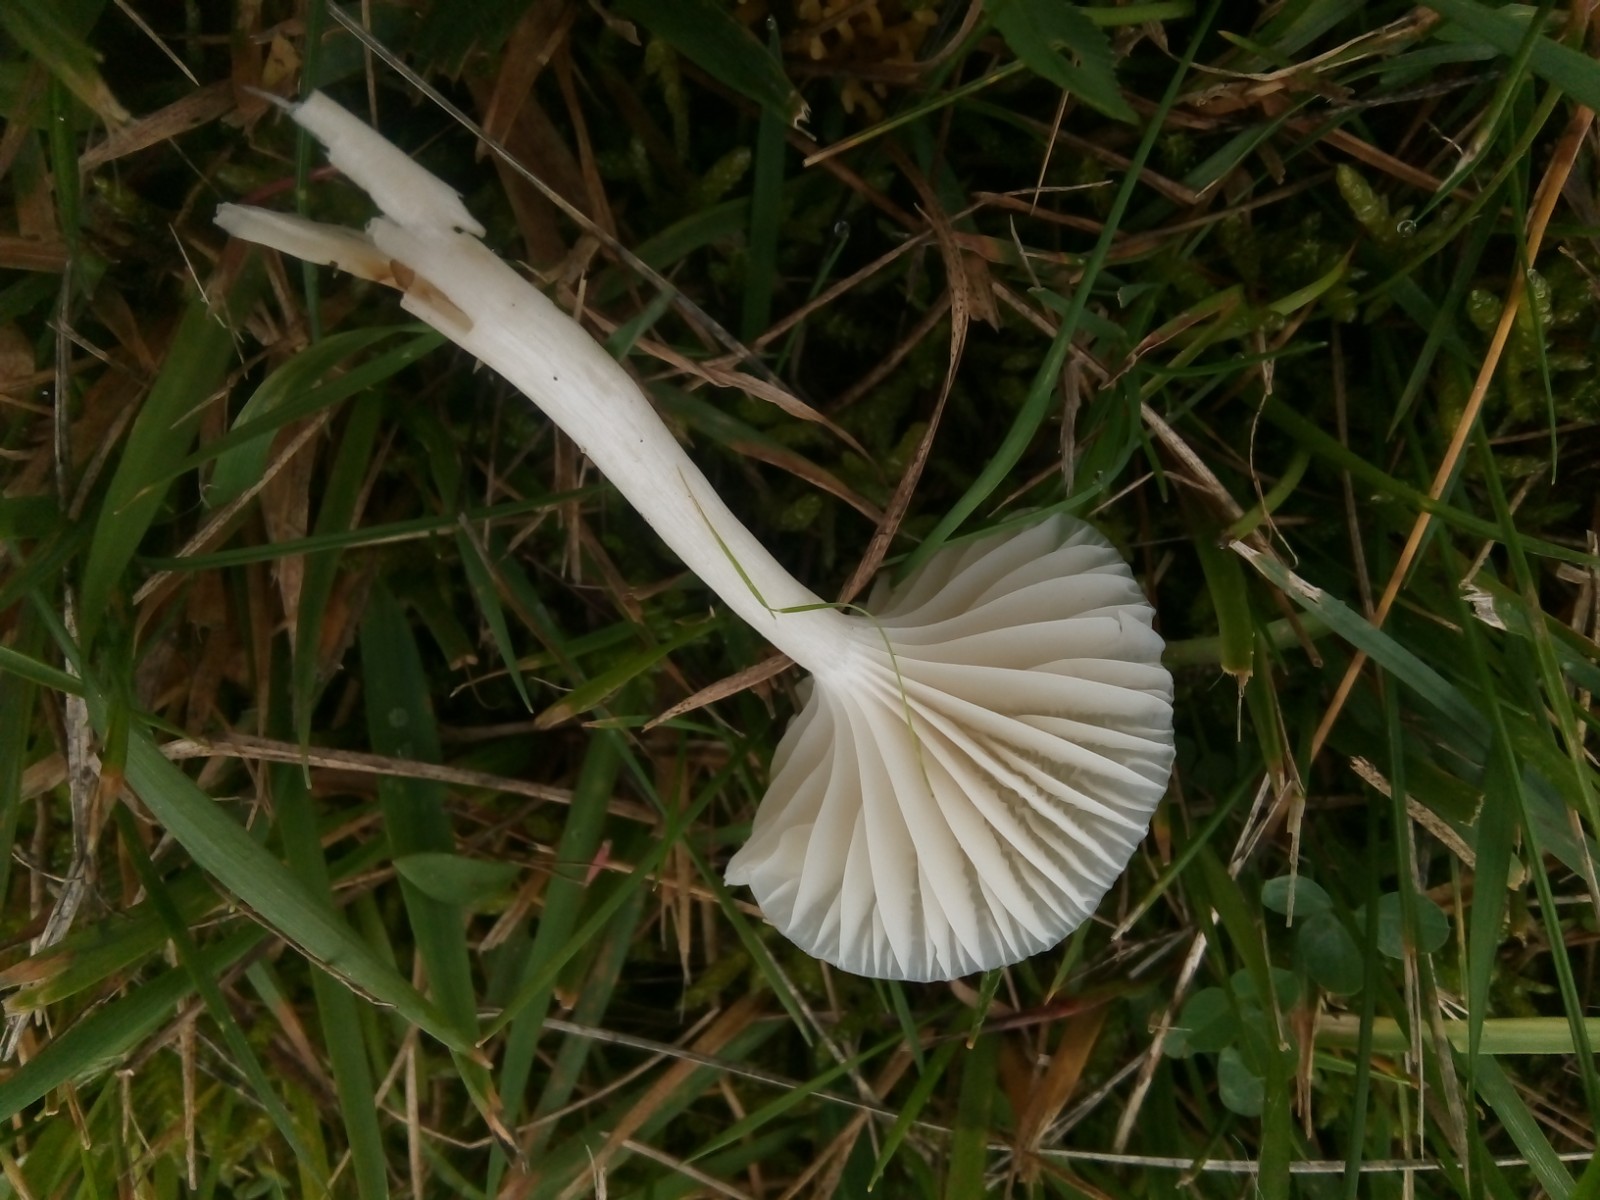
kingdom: Fungi
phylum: Basidiomycota
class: Agaricomycetes
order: Agaricales
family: Hygrophoraceae
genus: Cuphophyllus
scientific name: Cuphophyllus virgineus
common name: snehvid vokshat
